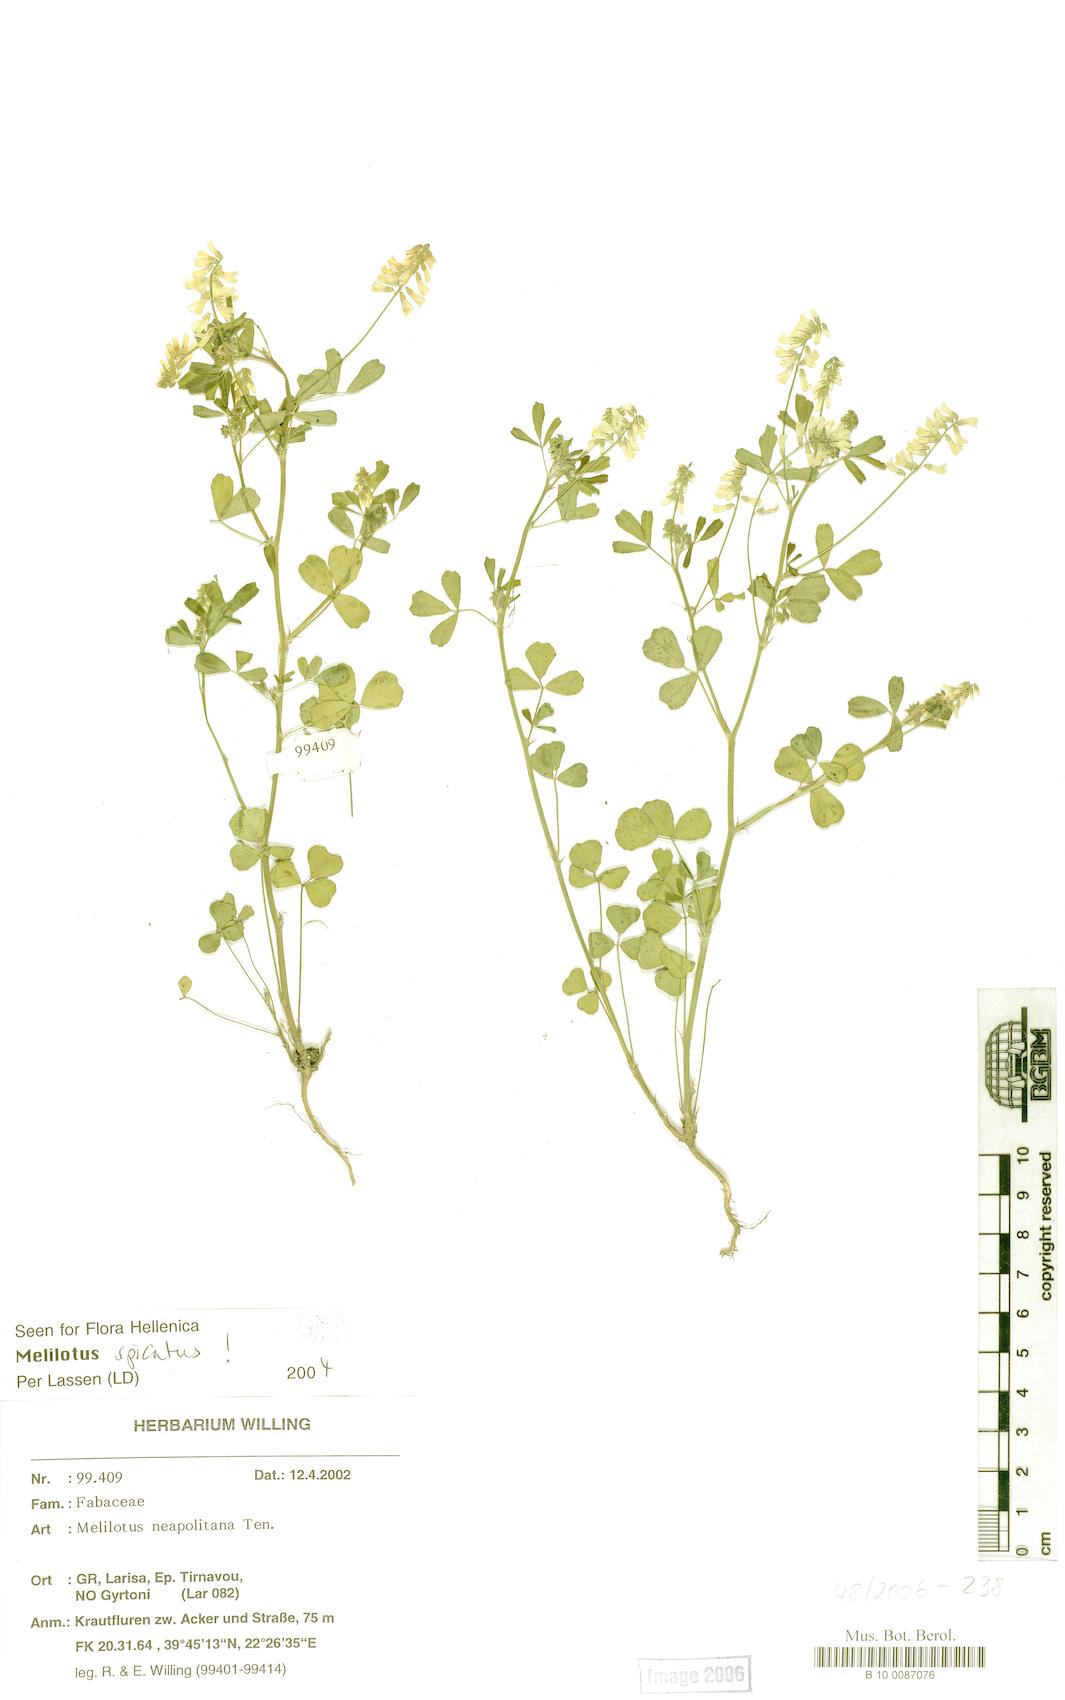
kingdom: Plantae
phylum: Tracheophyta
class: Magnoliopsida
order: Fabales
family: Fabaceae
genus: Melilotus
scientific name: Melilotus neapolitanus
